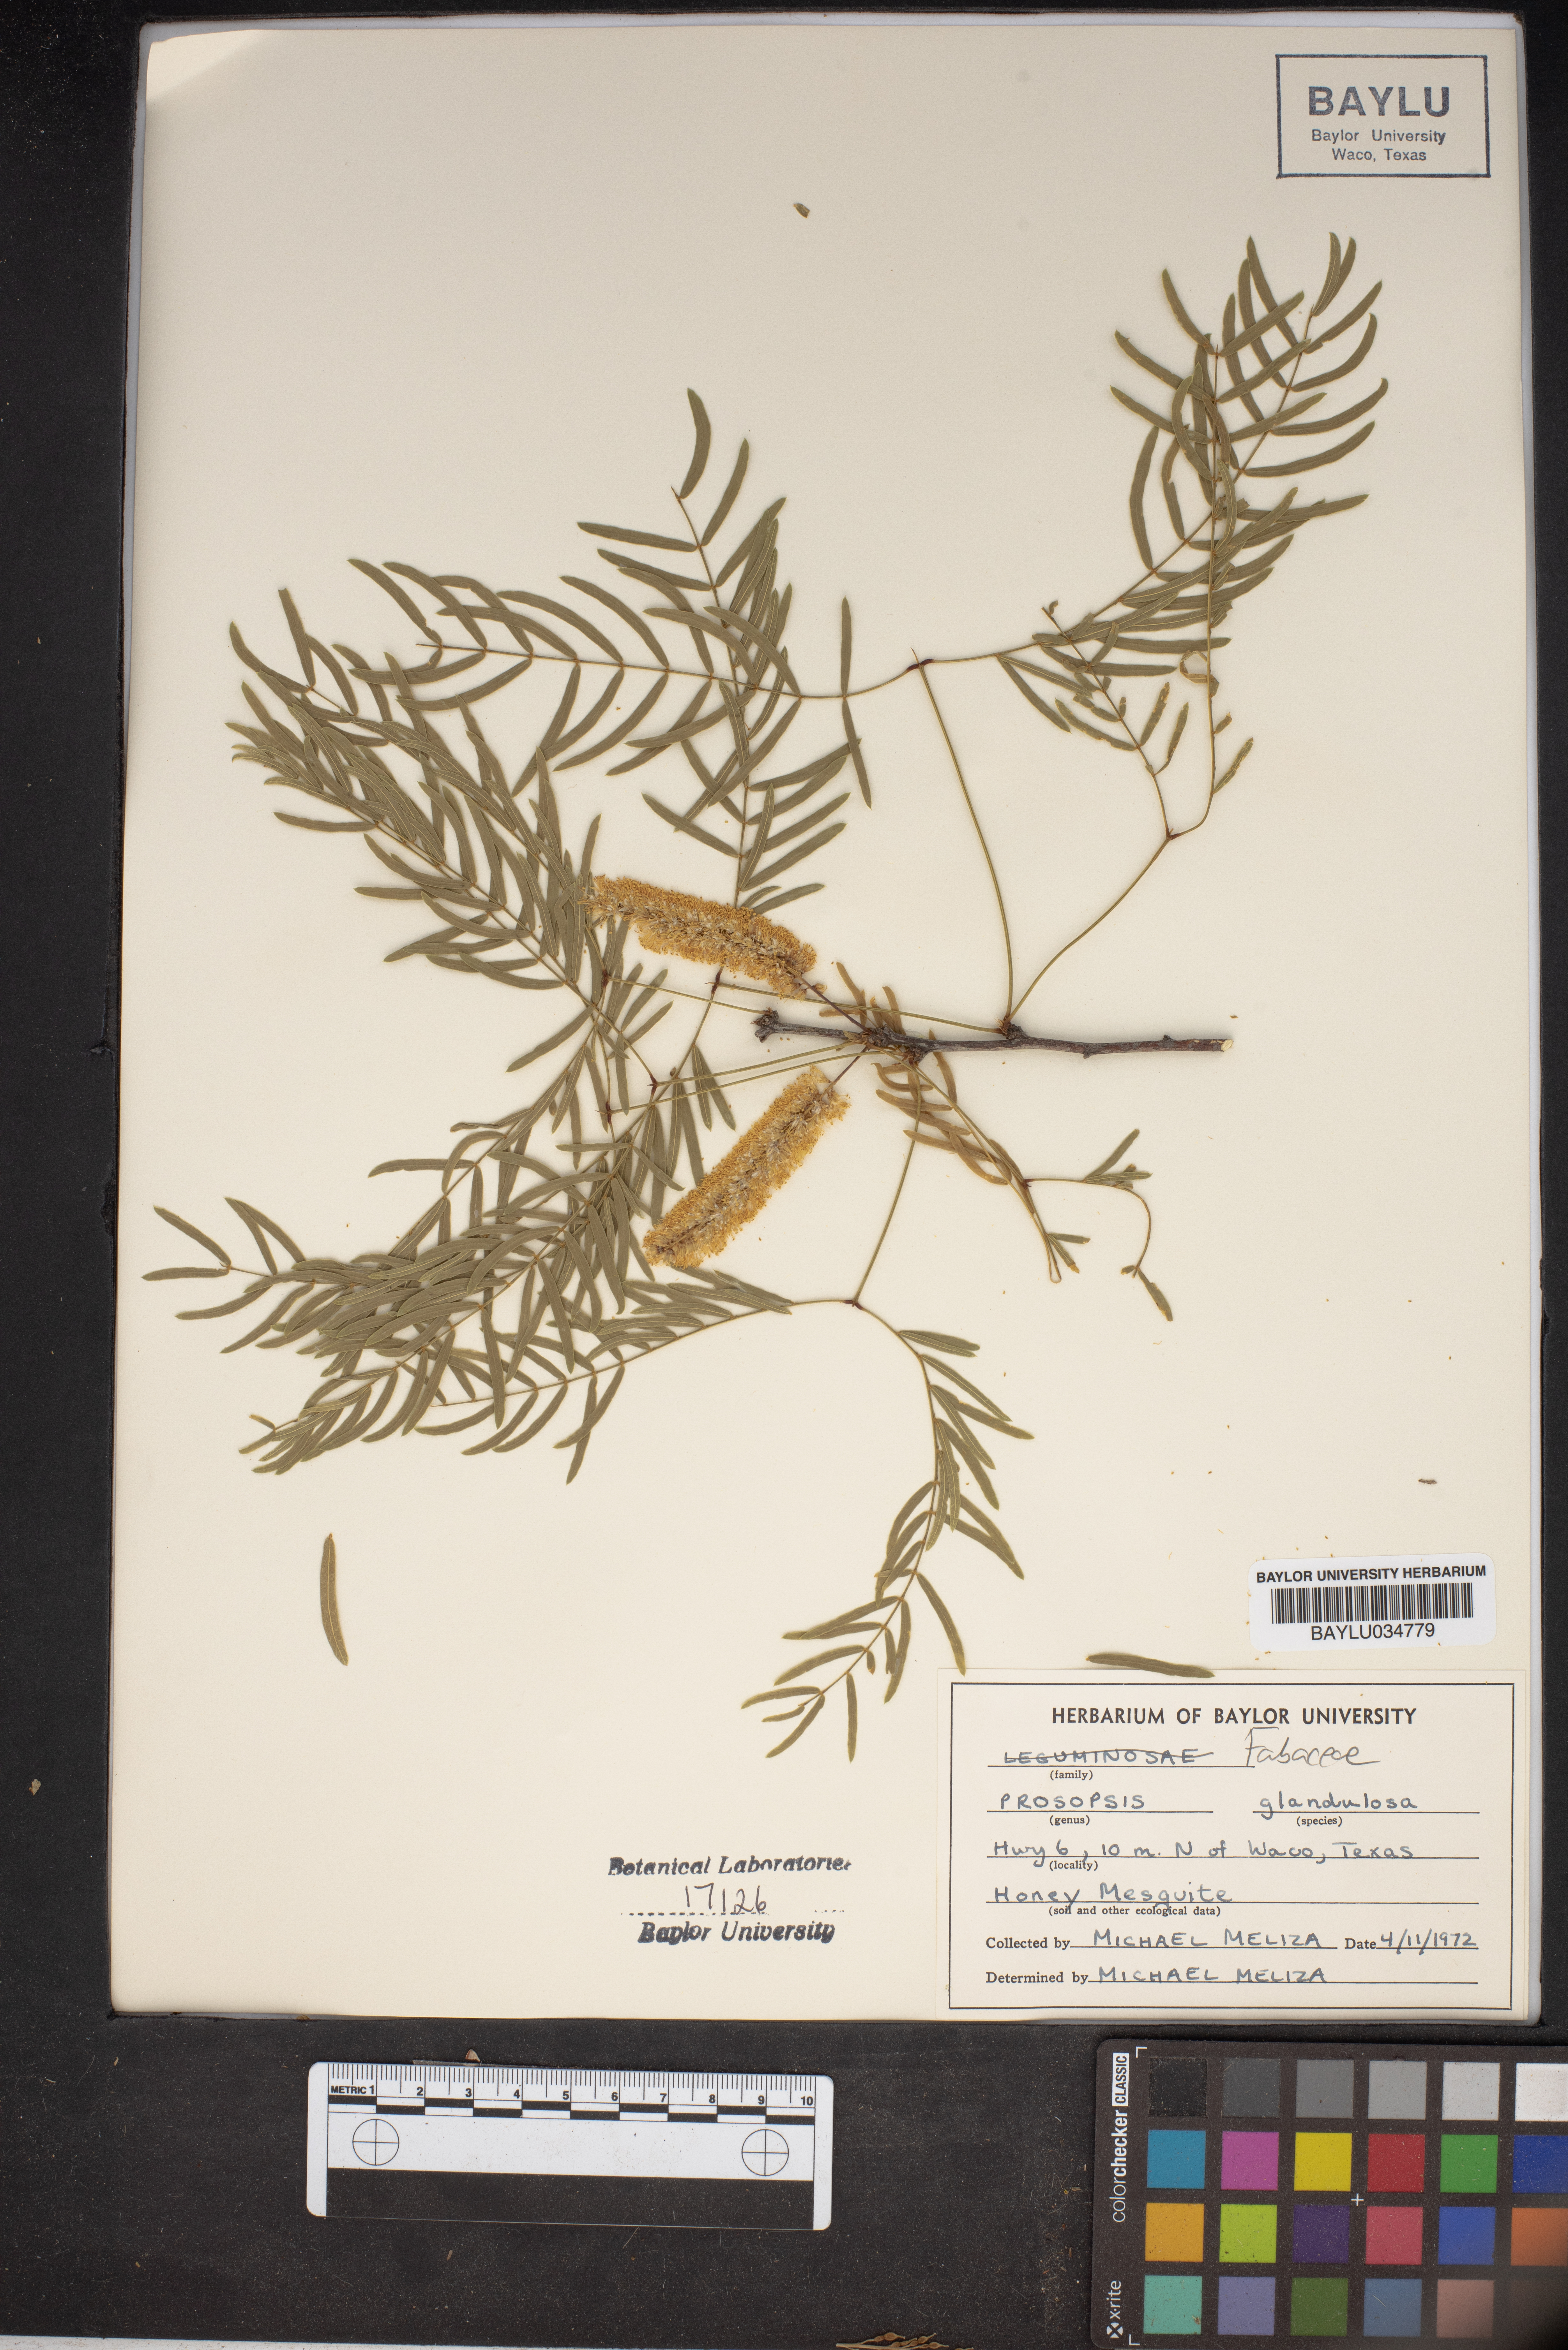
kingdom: Plantae
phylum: Tracheophyta
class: Magnoliopsida
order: Fabales
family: Fabaceae
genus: Prosopis
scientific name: Prosopis glandulosa
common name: Honey mesquite
